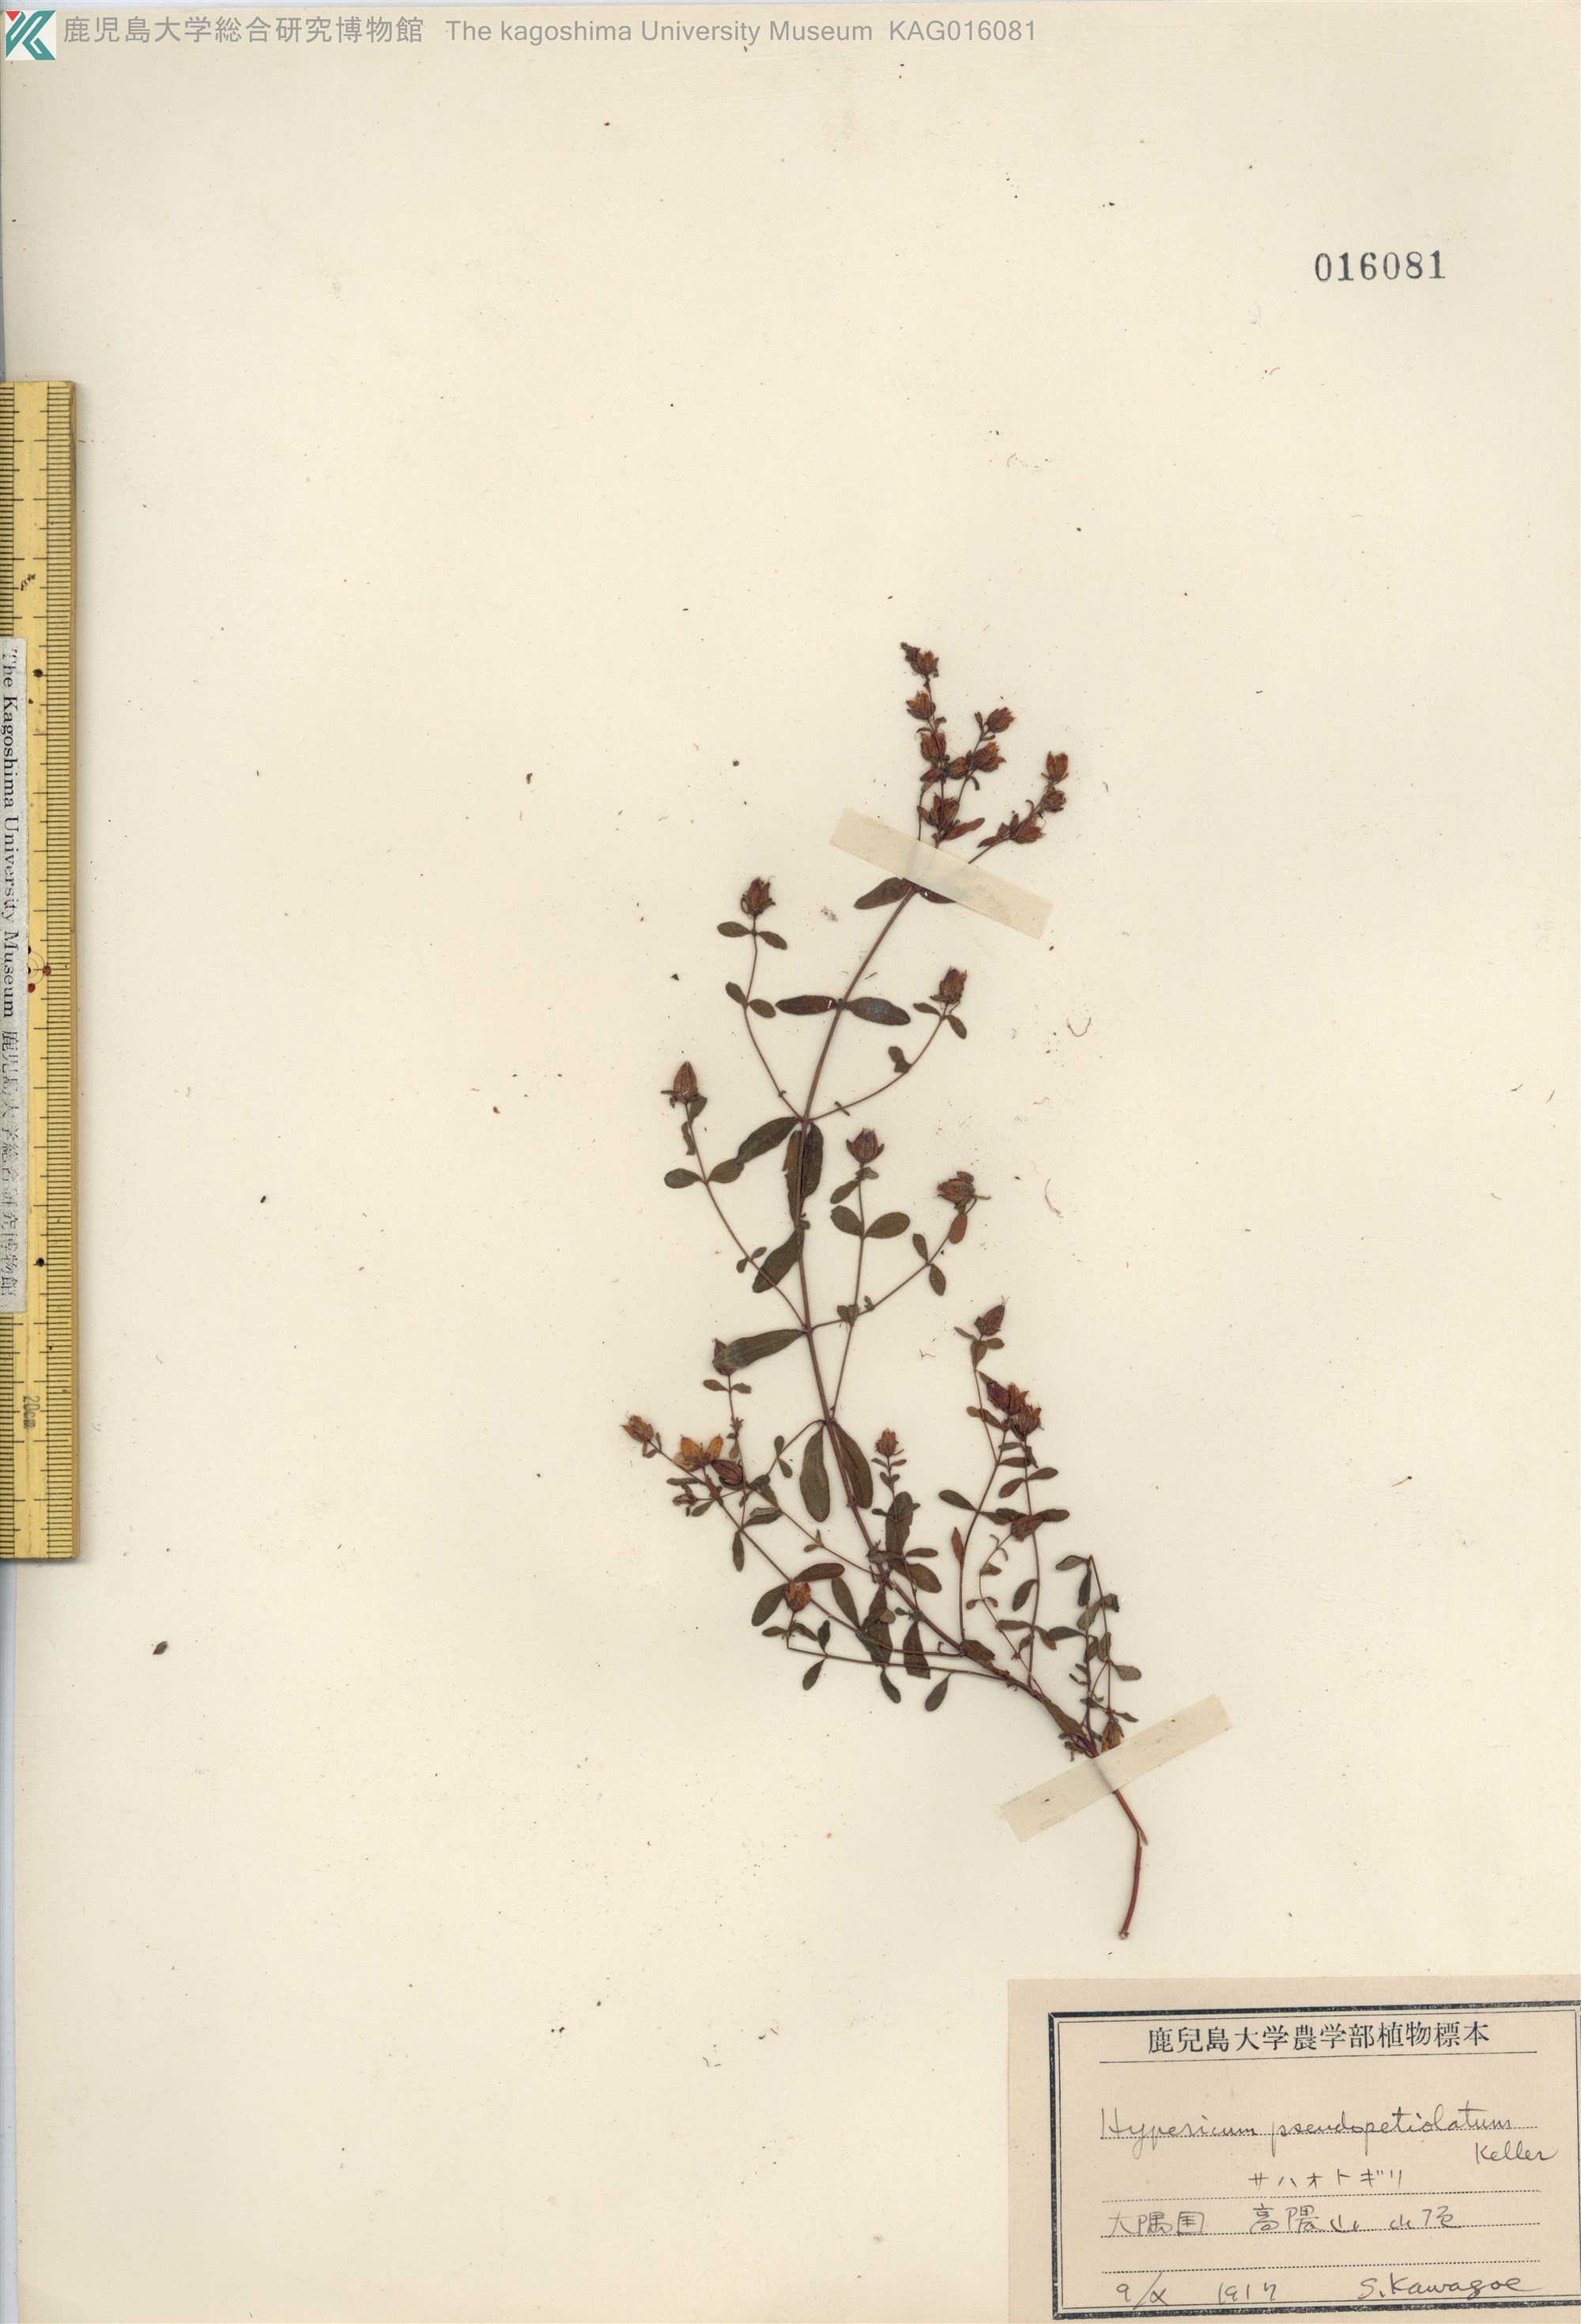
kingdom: Plantae
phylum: Tracheophyta
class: Magnoliopsida
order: Malpighiales
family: Hypericaceae
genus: Hypericum
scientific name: Hypericum pseudopetiolatum
